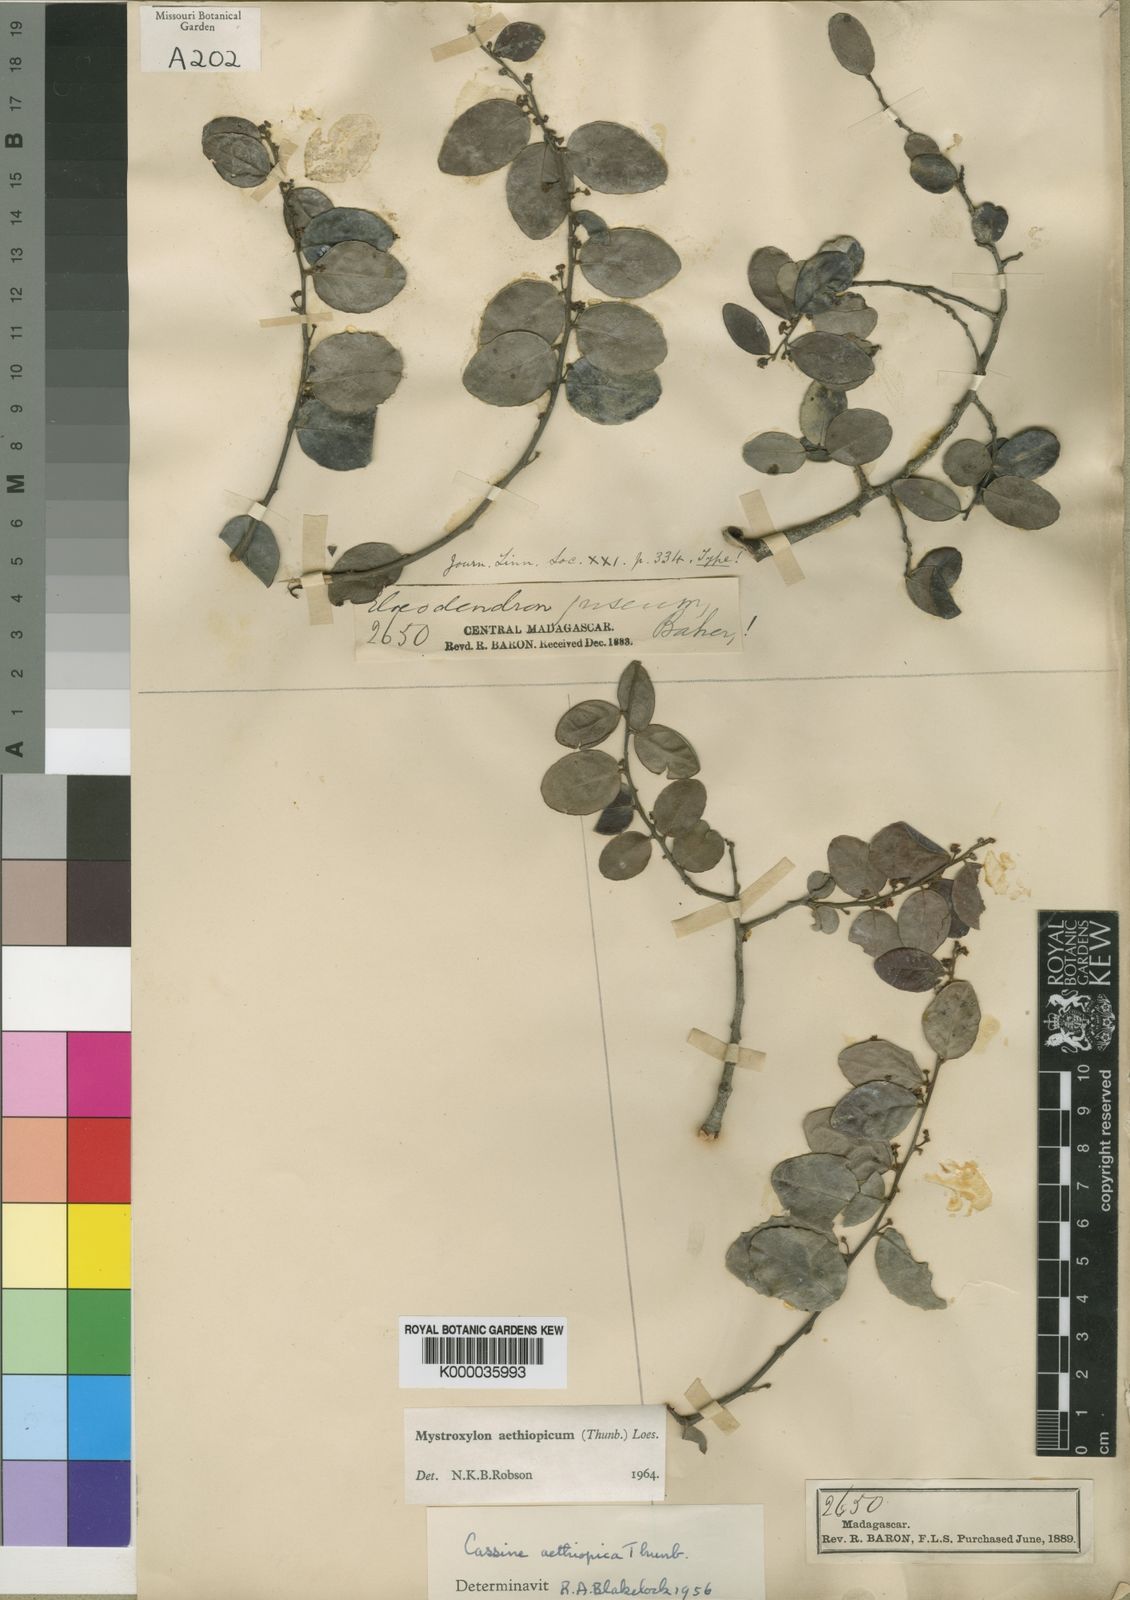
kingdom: Plantae
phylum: Tracheophyta
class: Magnoliopsida
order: Celastrales
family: Celastraceae
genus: Mystroxylon
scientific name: Mystroxylon aethiopicum
